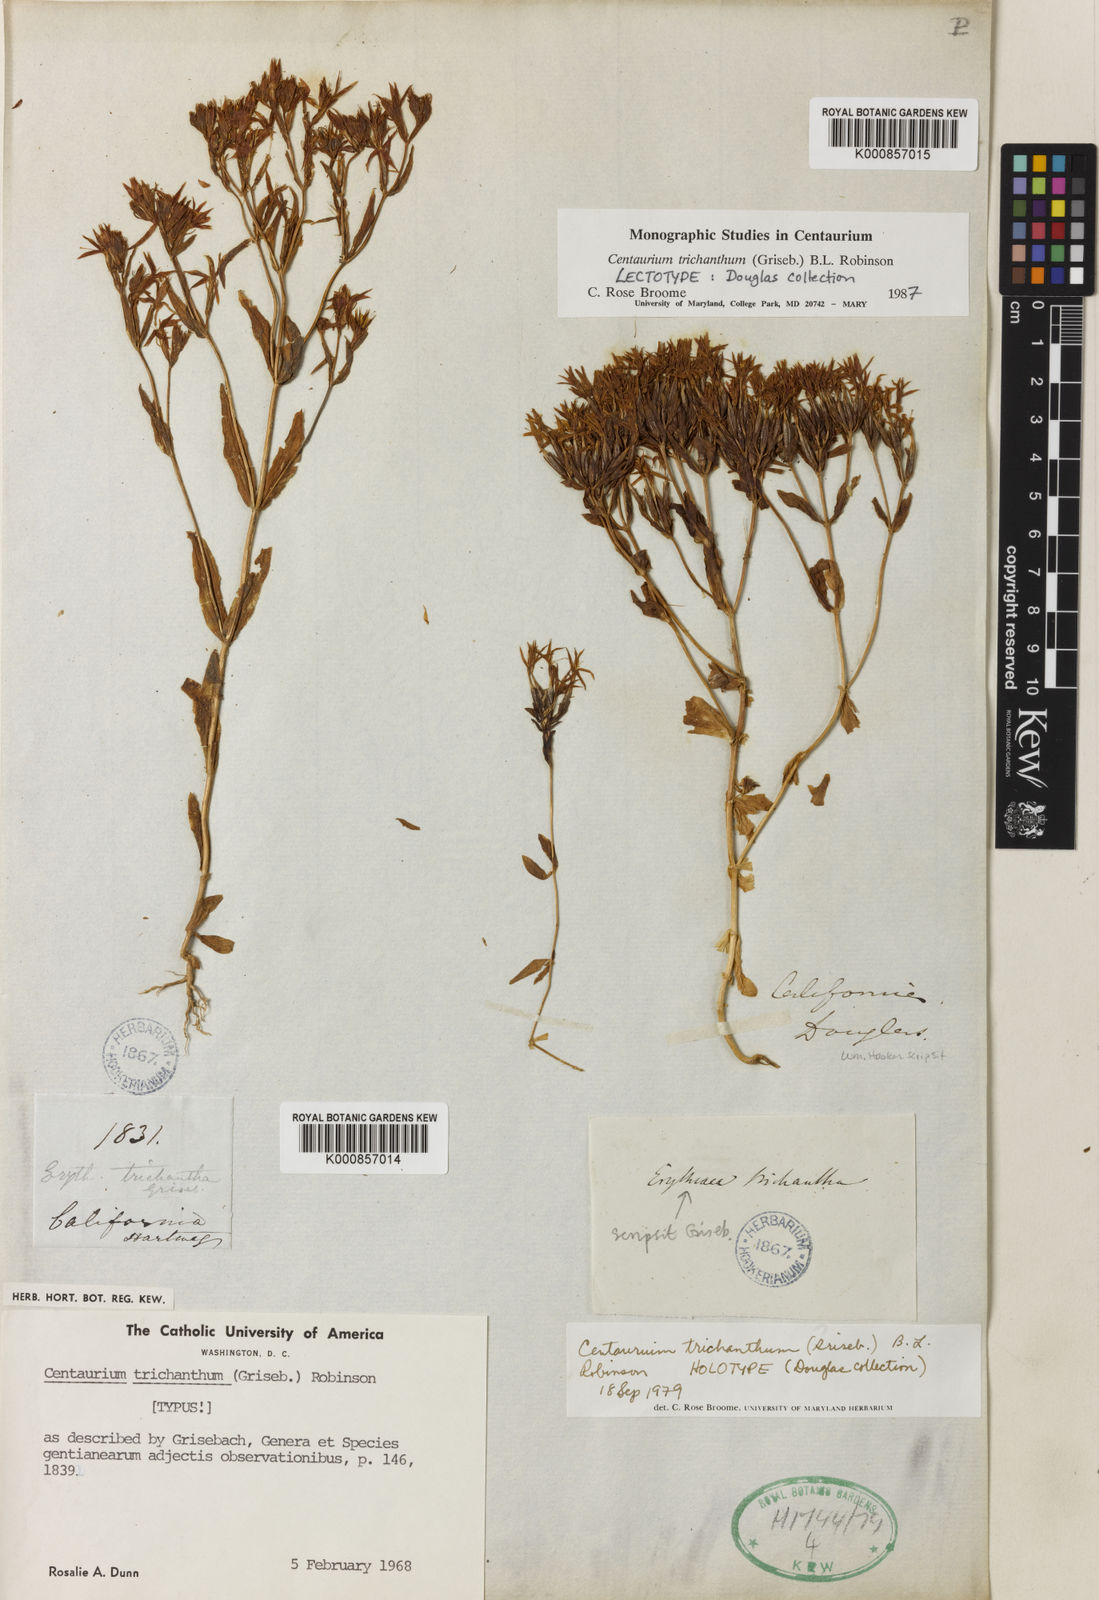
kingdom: Plantae
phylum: Tracheophyta
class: Magnoliopsida
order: Gentianales
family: Gentianaceae
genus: Zeltnera
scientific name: Zeltnera trichantha
